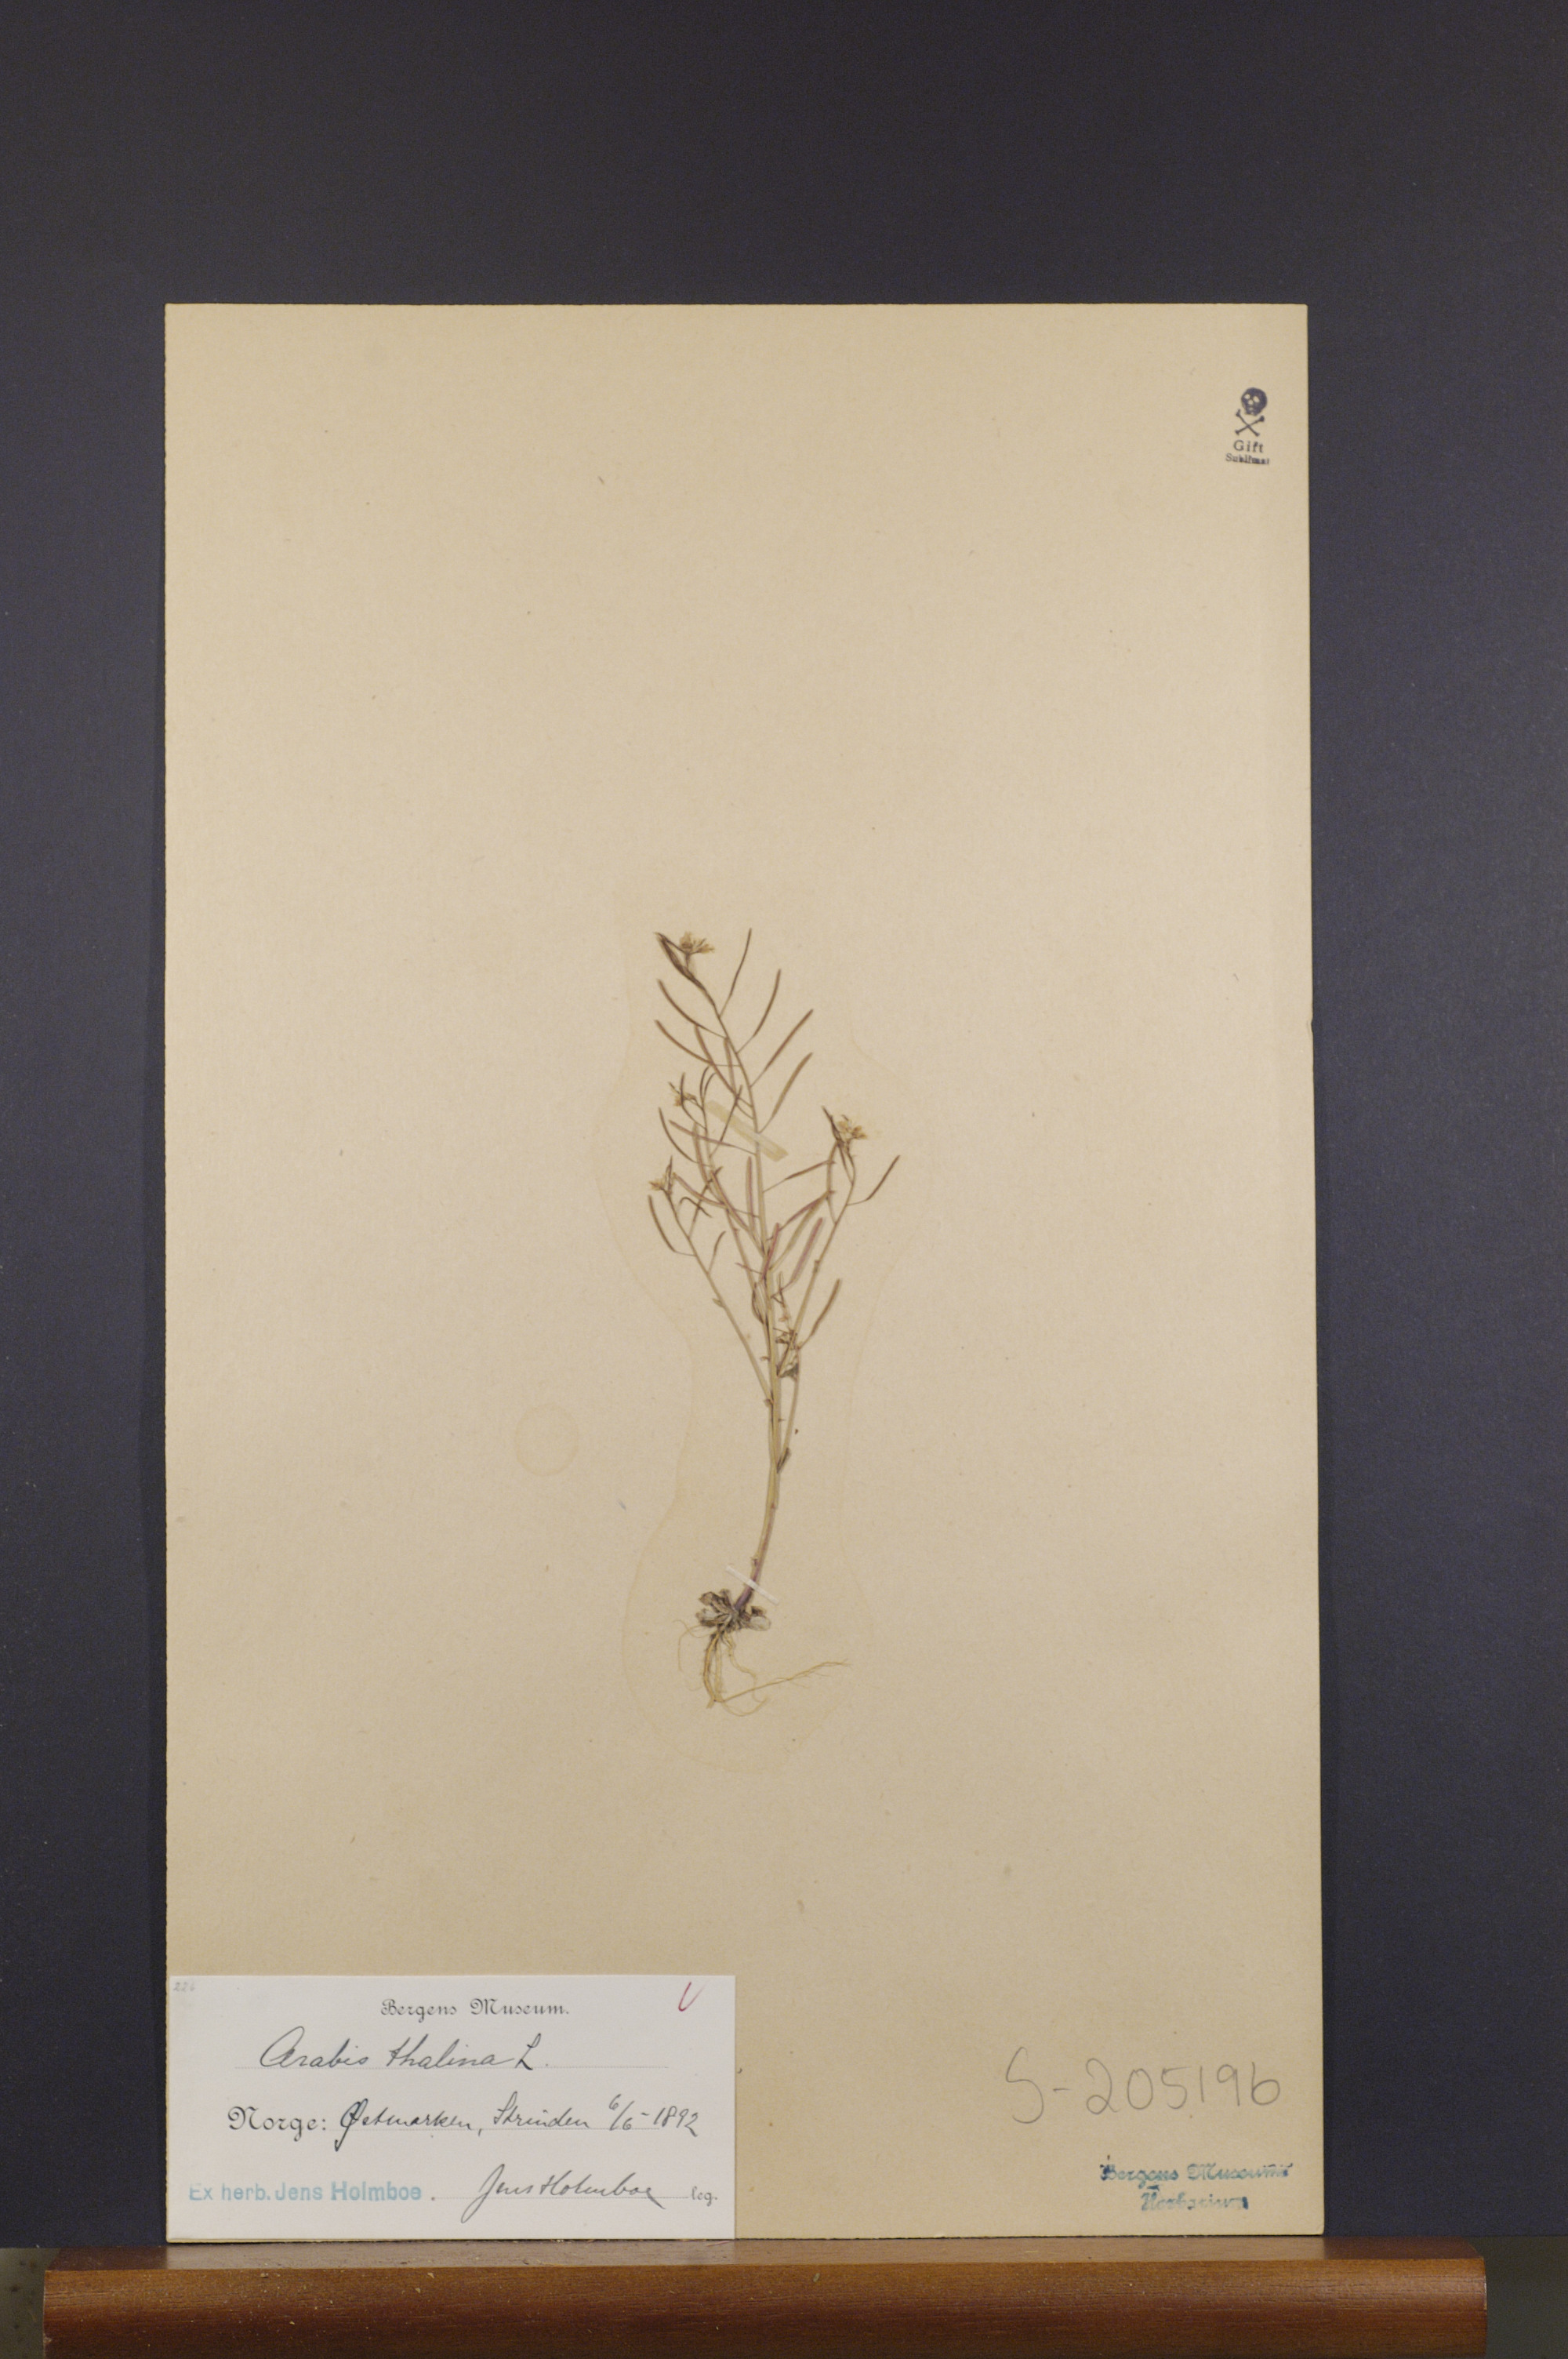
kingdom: Plantae
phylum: Tracheophyta
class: Magnoliopsida
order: Brassicales
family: Brassicaceae
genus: Arabidopsis
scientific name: Arabidopsis thaliana
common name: Thale cress
